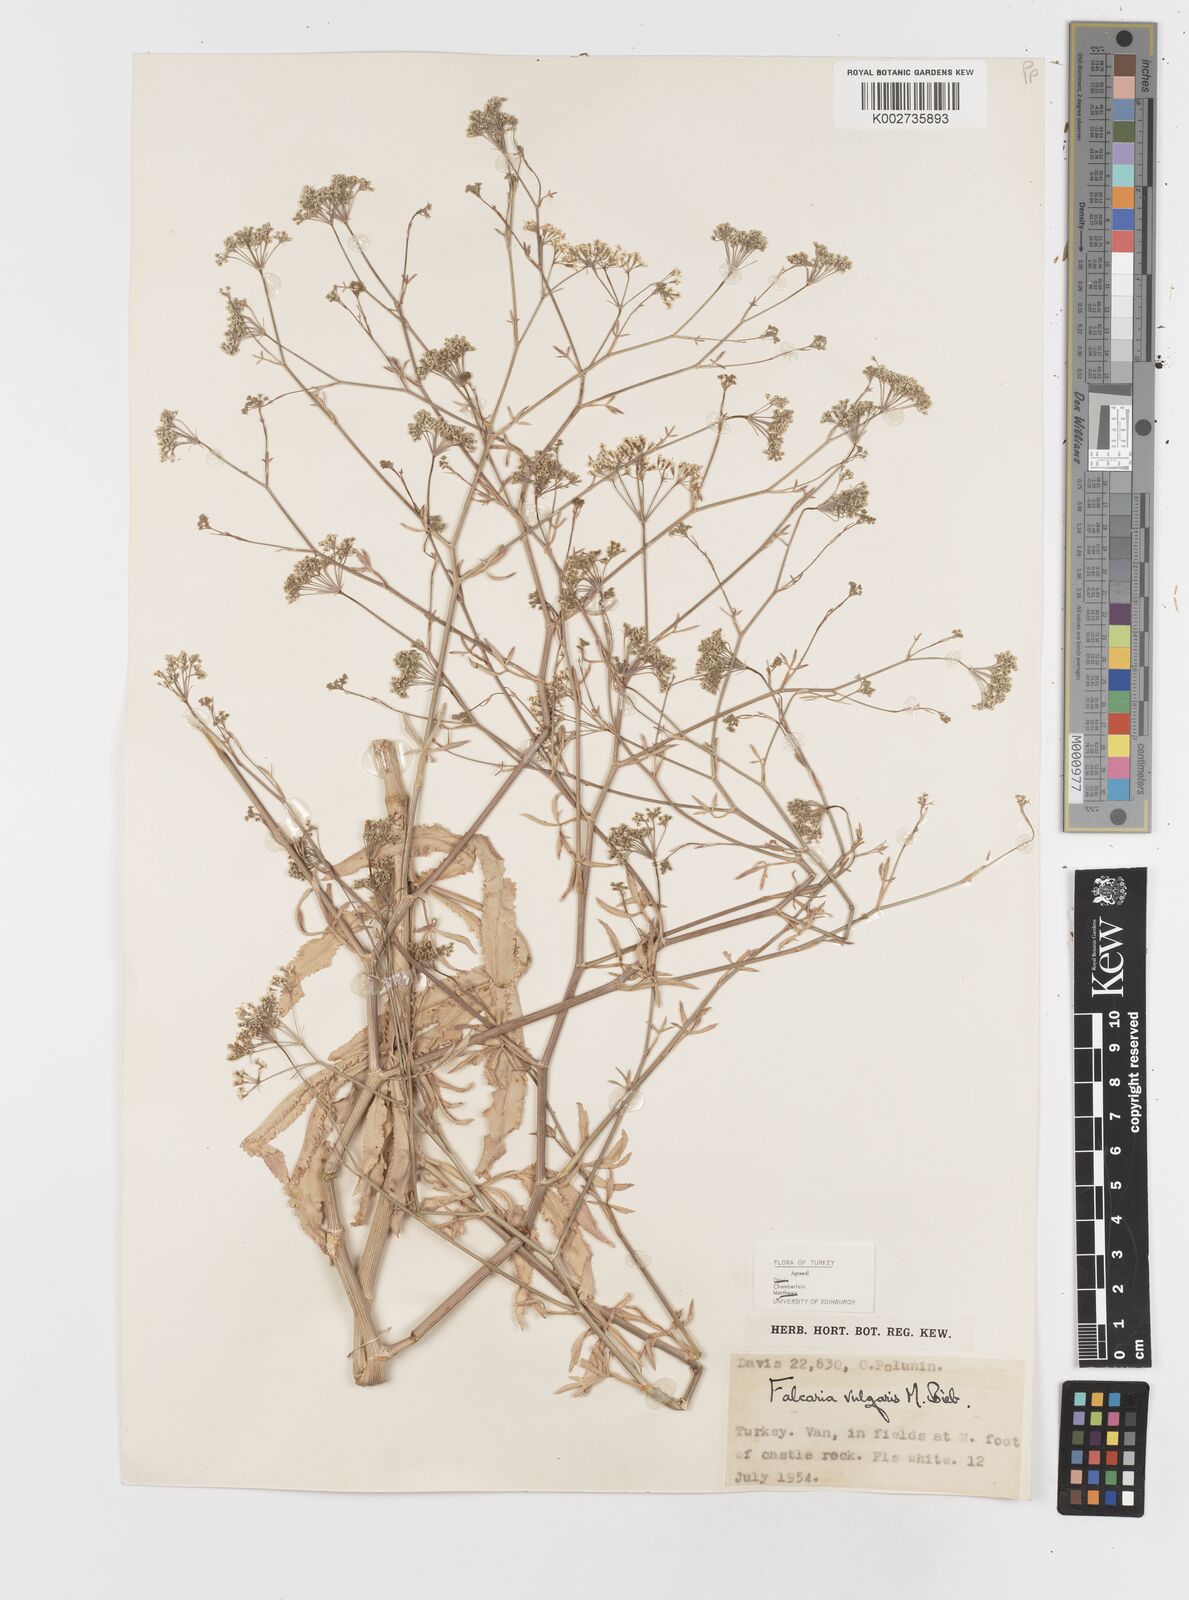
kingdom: Plantae
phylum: Tracheophyta
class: Magnoliopsida
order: Apiales
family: Apiaceae
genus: Falcaria
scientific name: Falcaria vulgaris
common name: Longleaf
